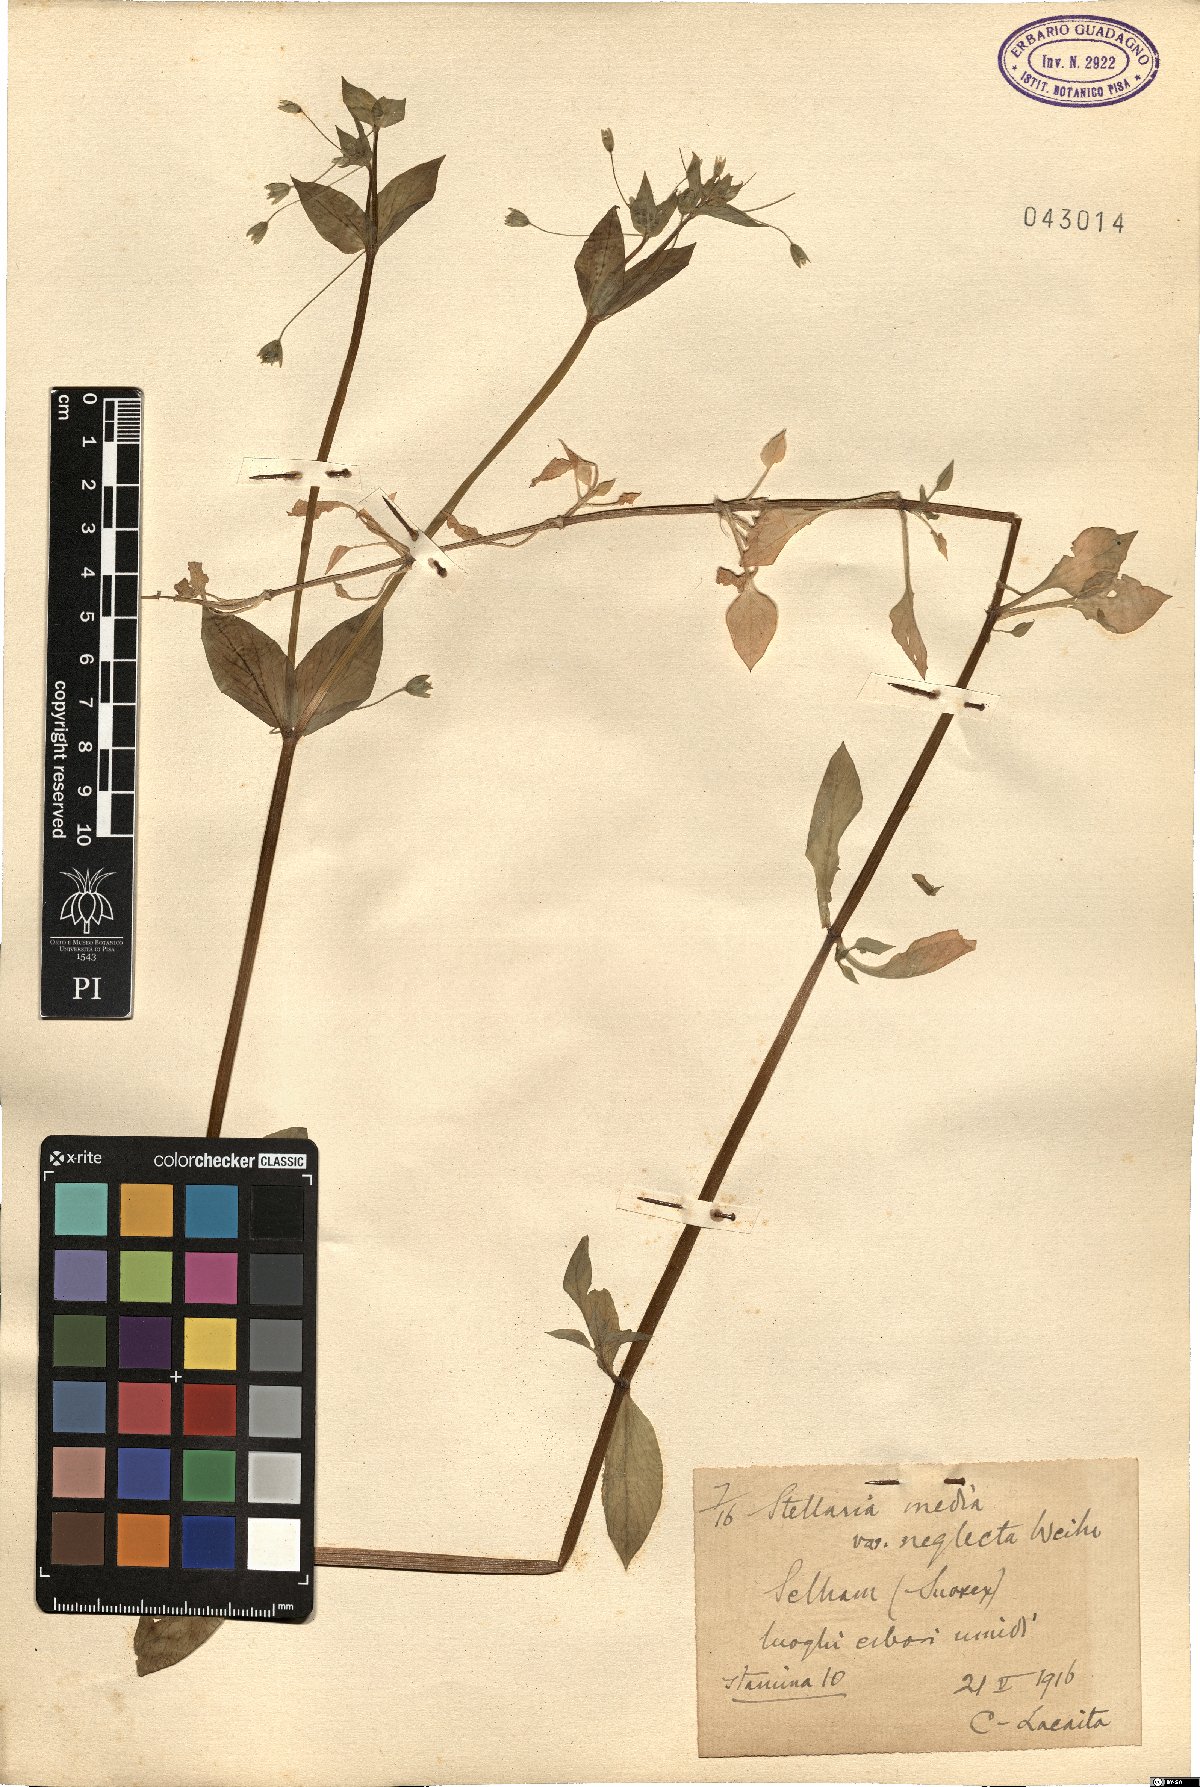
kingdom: Plantae
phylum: Tracheophyta
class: Magnoliopsida
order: Caryophyllales
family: Caryophyllaceae
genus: Stellaria
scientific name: Stellaria neglecta
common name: Greater chickweed
